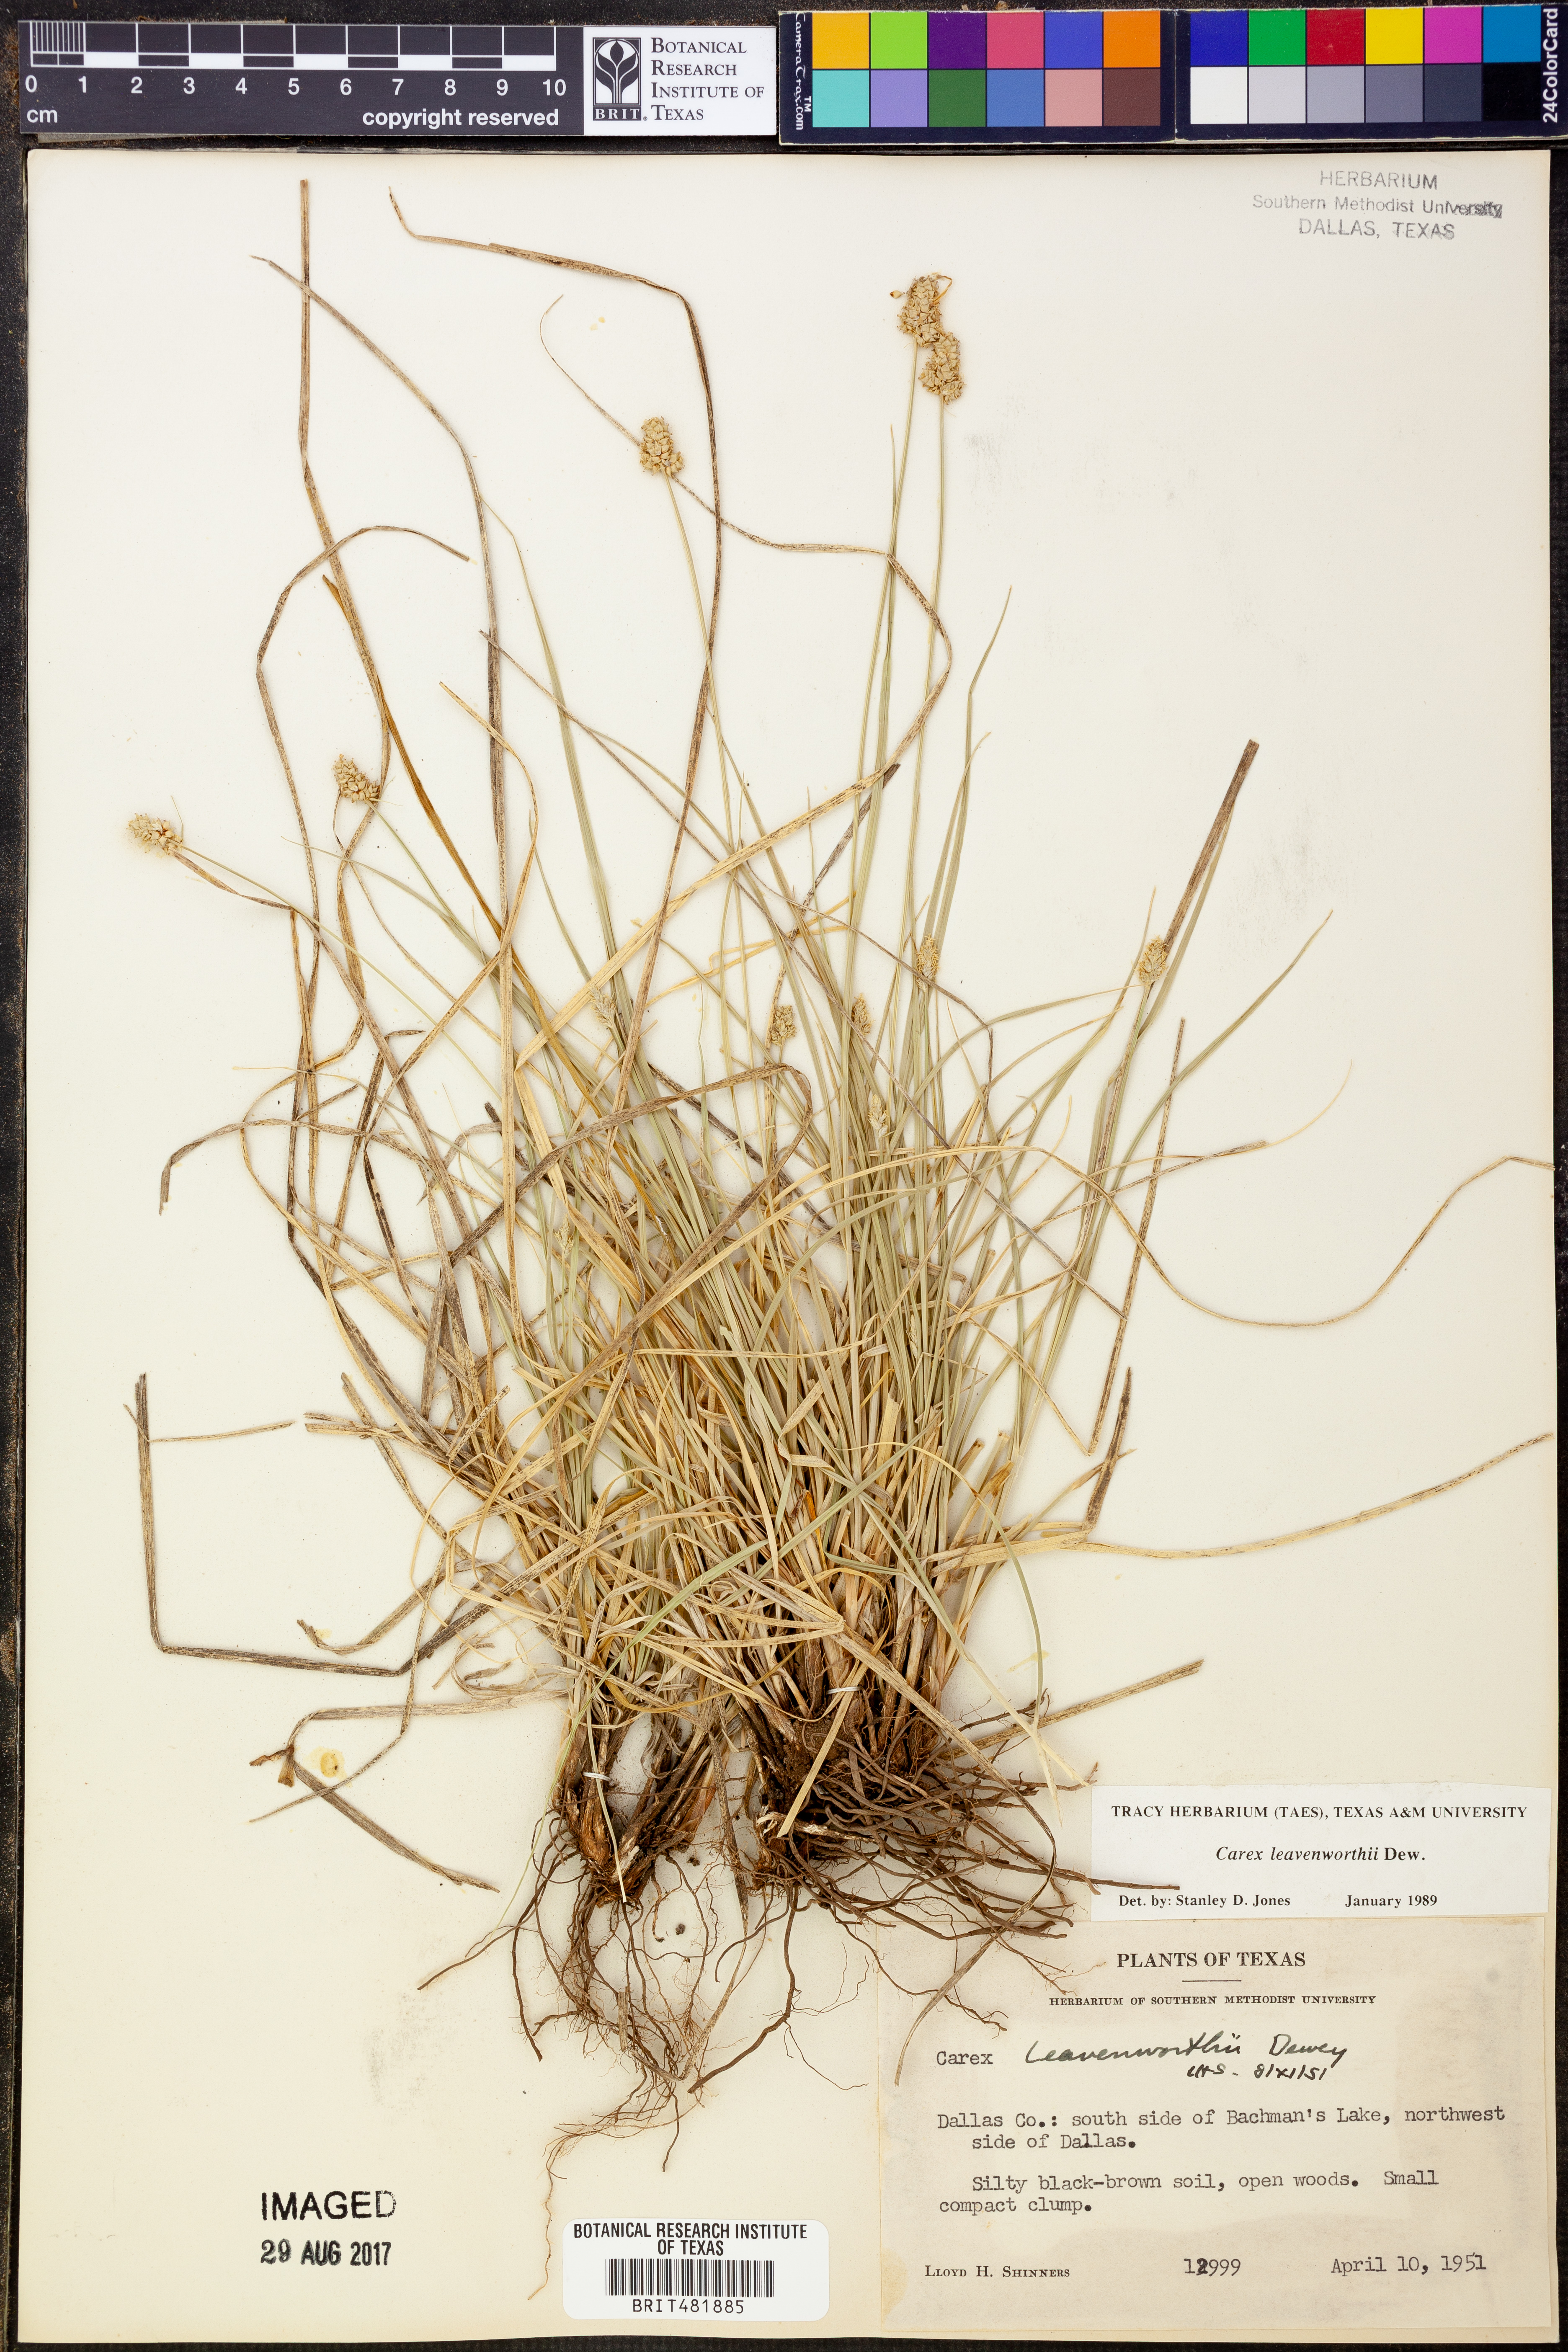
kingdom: Plantae
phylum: Tracheophyta
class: Liliopsida
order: Poales
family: Cyperaceae
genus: Carex
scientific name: Carex leavenworthii
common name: Leavenworth's bracted sedge
